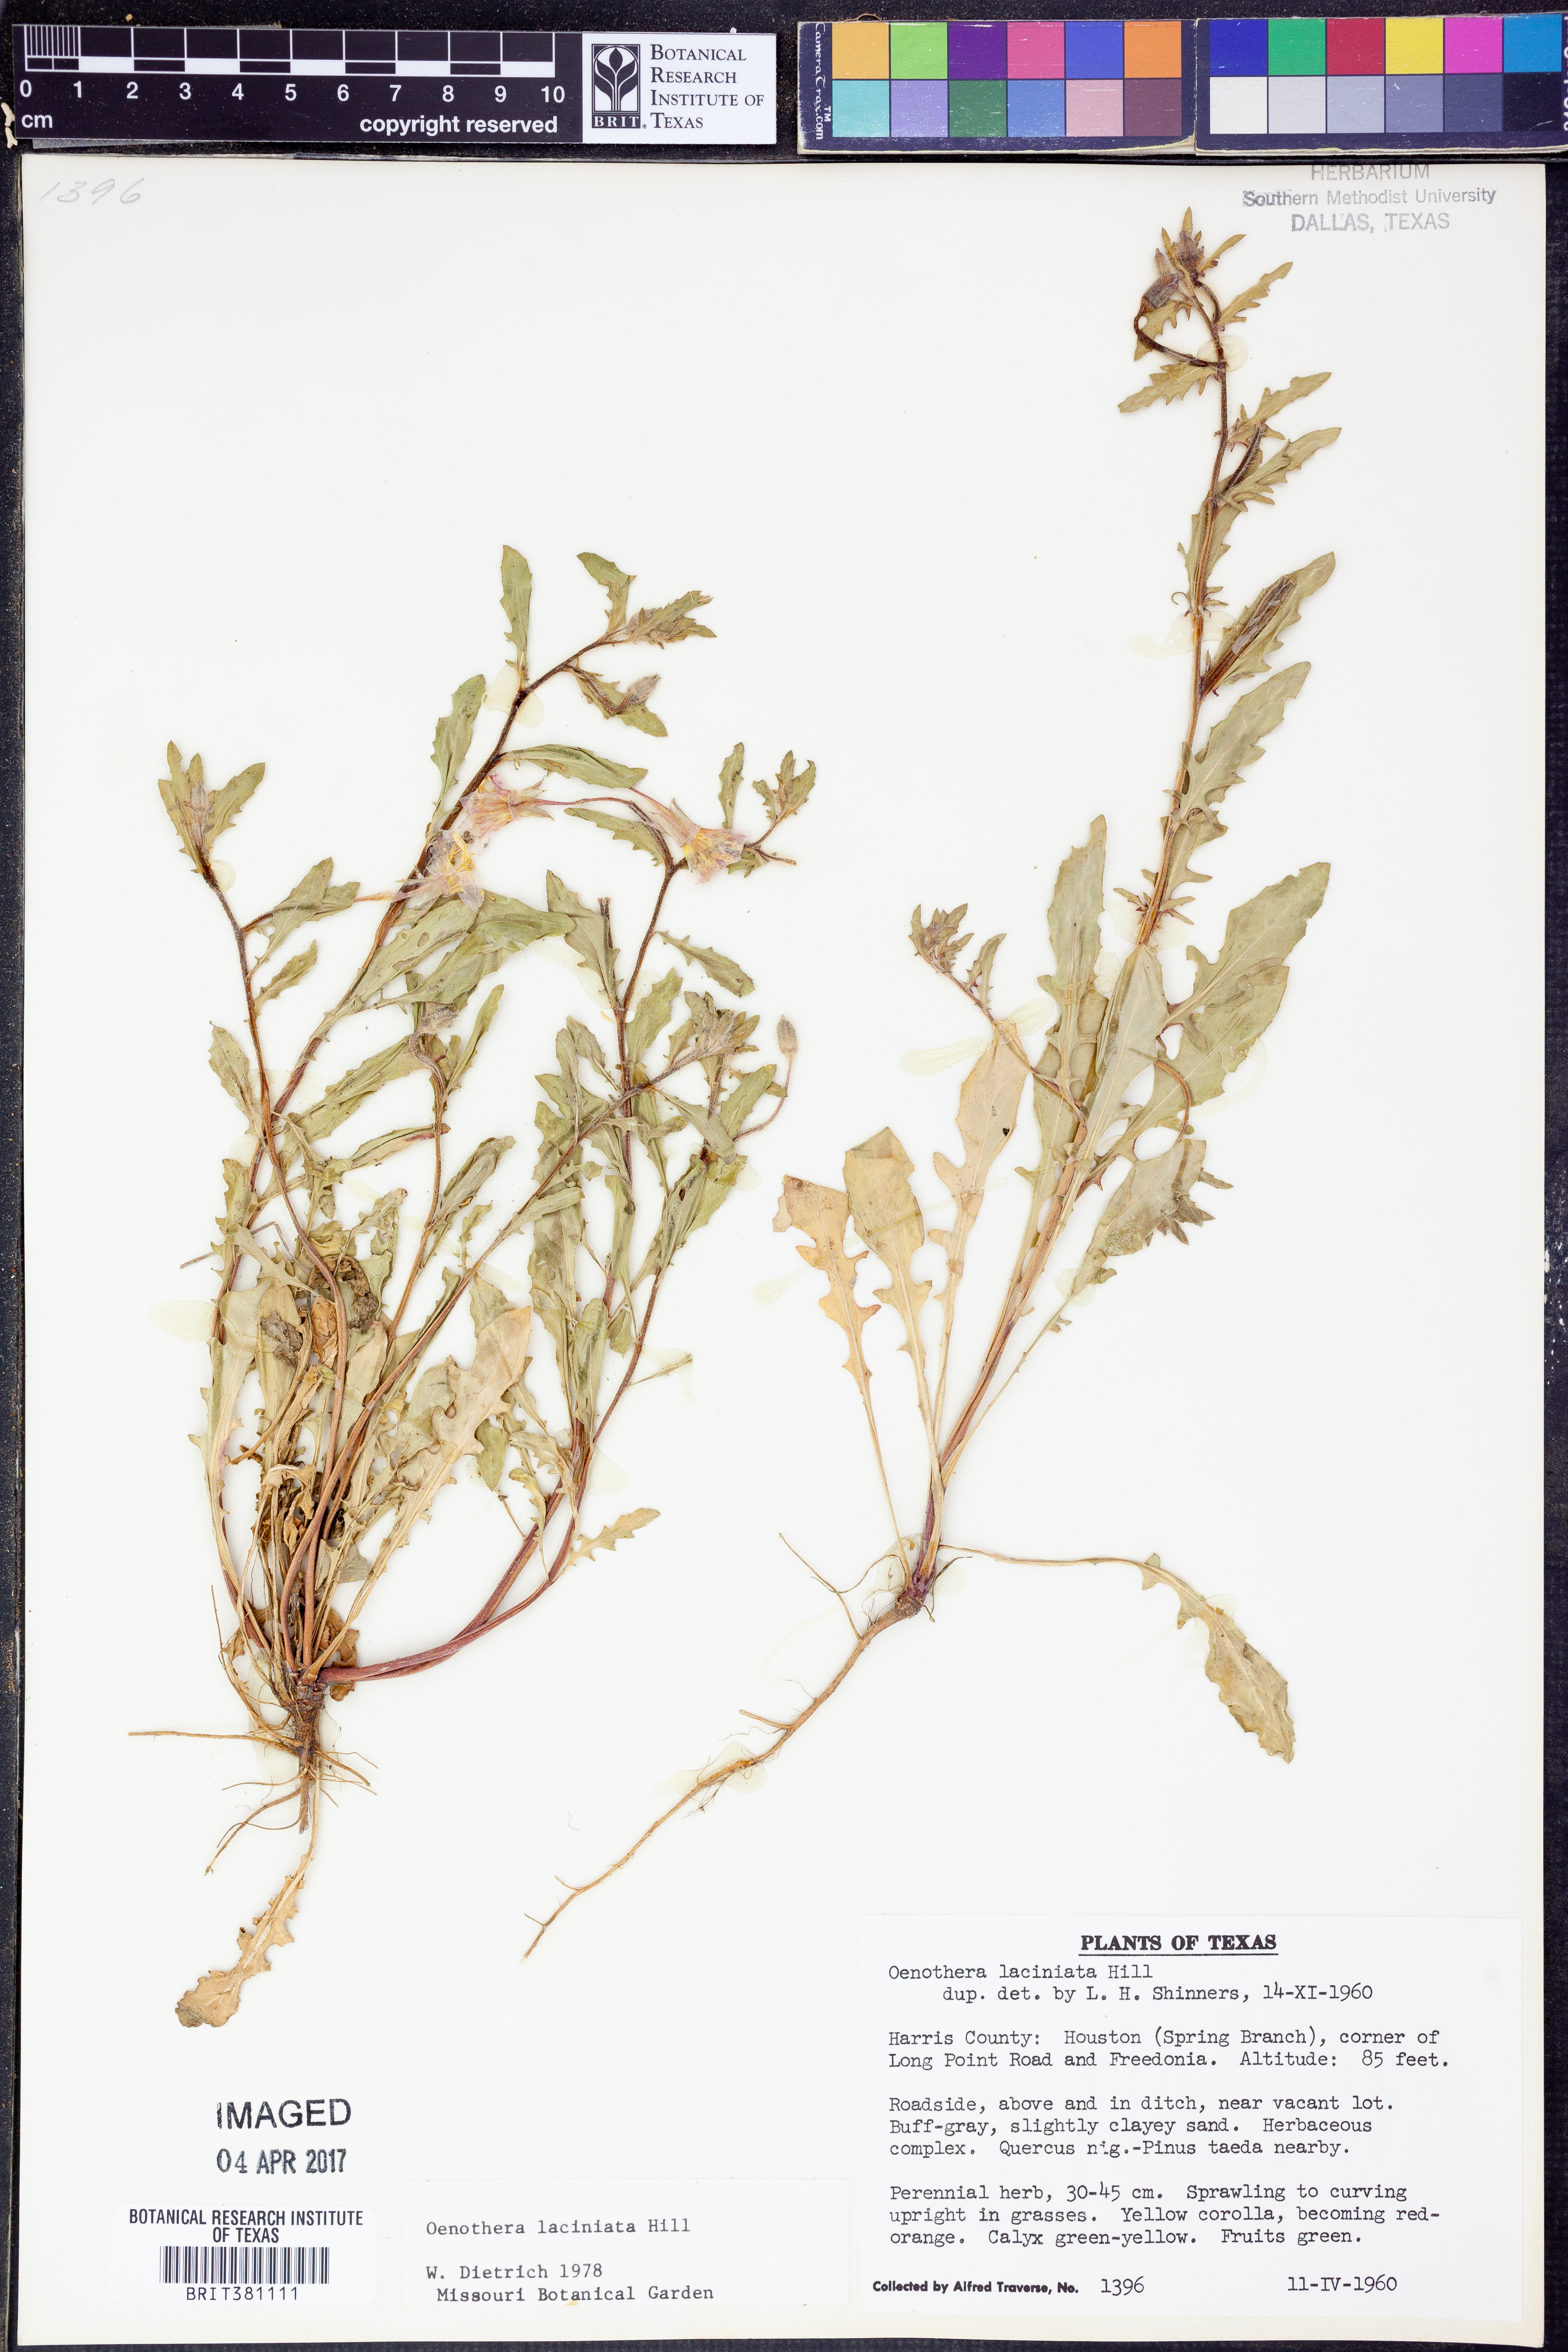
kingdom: Plantae
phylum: Tracheophyta
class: Magnoliopsida
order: Myrtales
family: Onagraceae
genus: Oenothera
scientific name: Oenothera laciniata
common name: Cut-leaved evening-primrose
